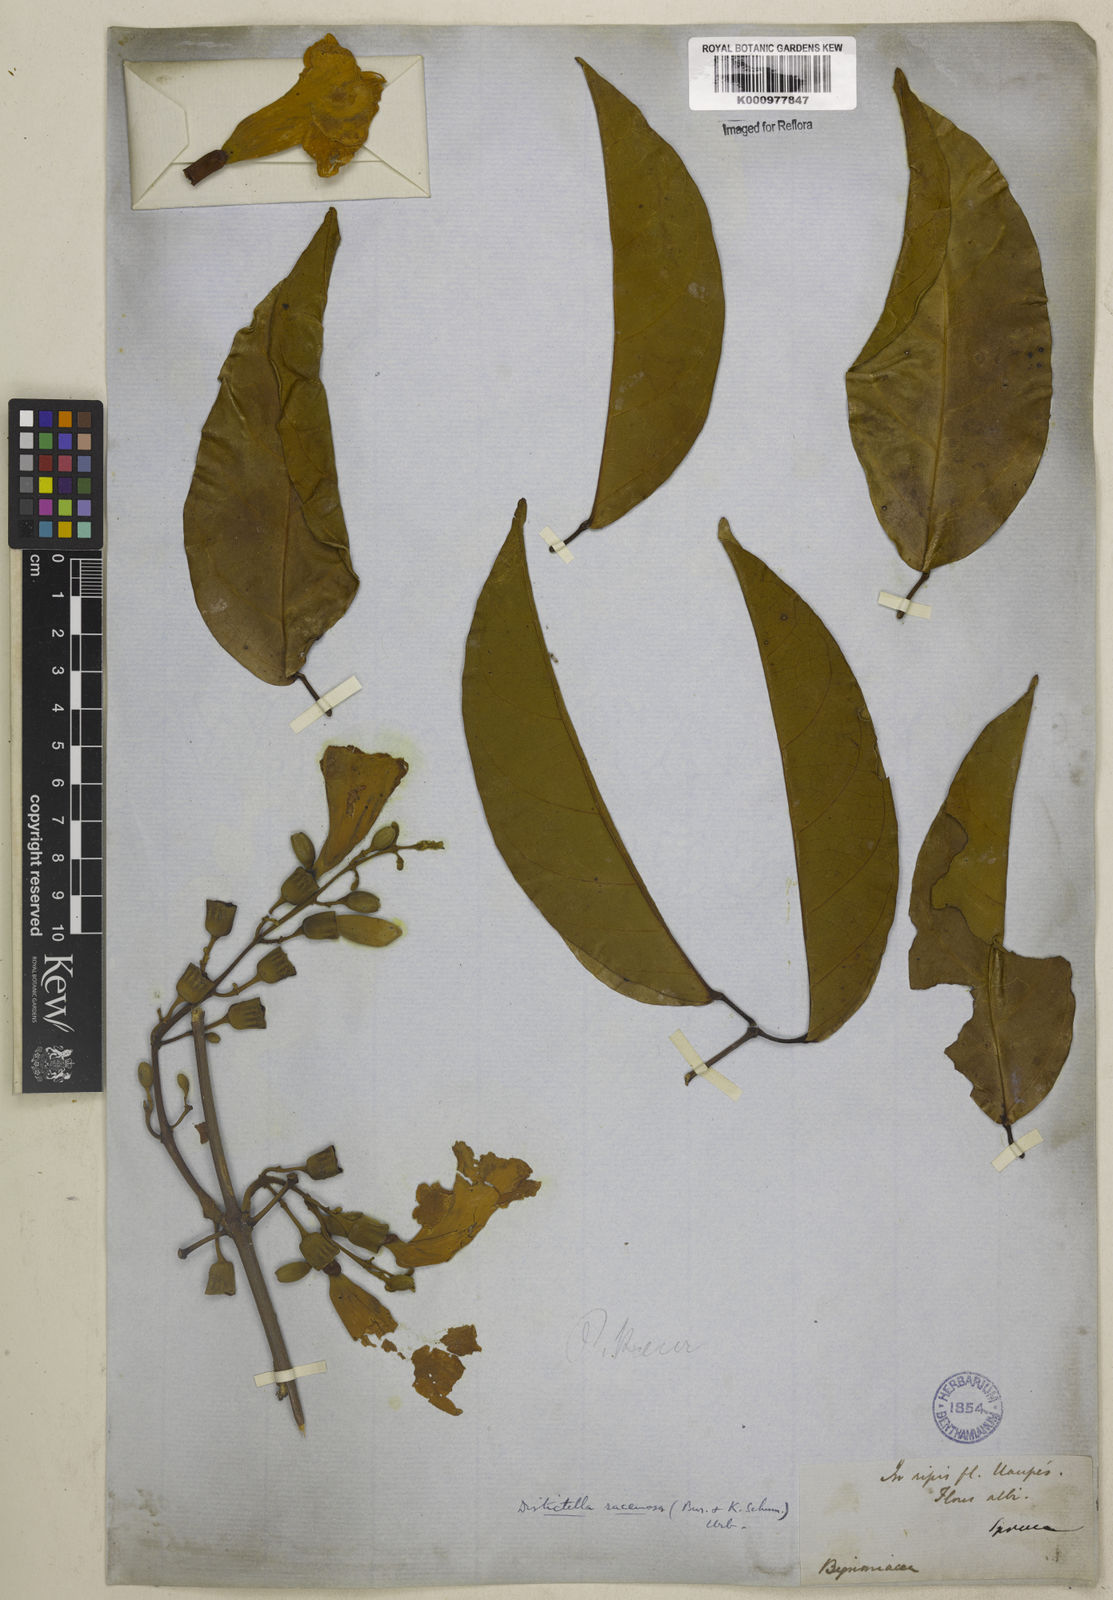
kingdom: Plantae
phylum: Tracheophyta
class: Magnoliopsida
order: Lamiales
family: Bignoniaceae
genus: Amphilophium
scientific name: Amphilophium racemosum
